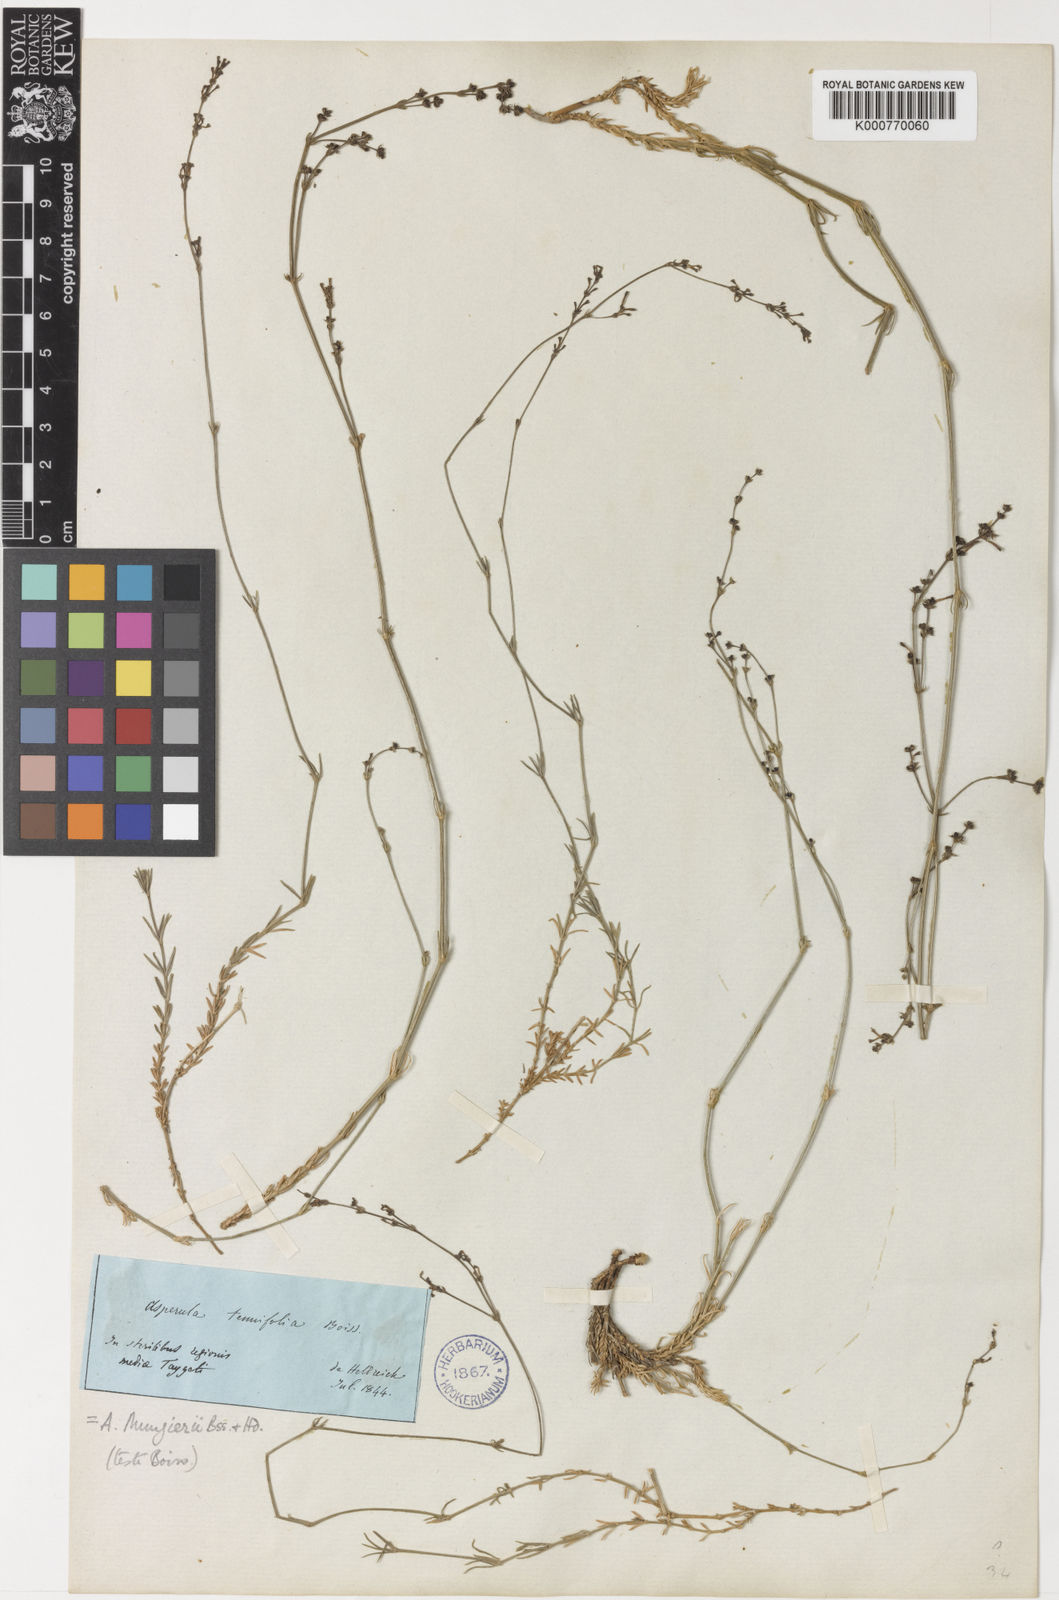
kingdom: Plantae
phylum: Tracheophyta
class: Magnoliopsida
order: Gentianales
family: Rubiaceae
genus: Cynanchica
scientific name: Cynanchica mungieri
